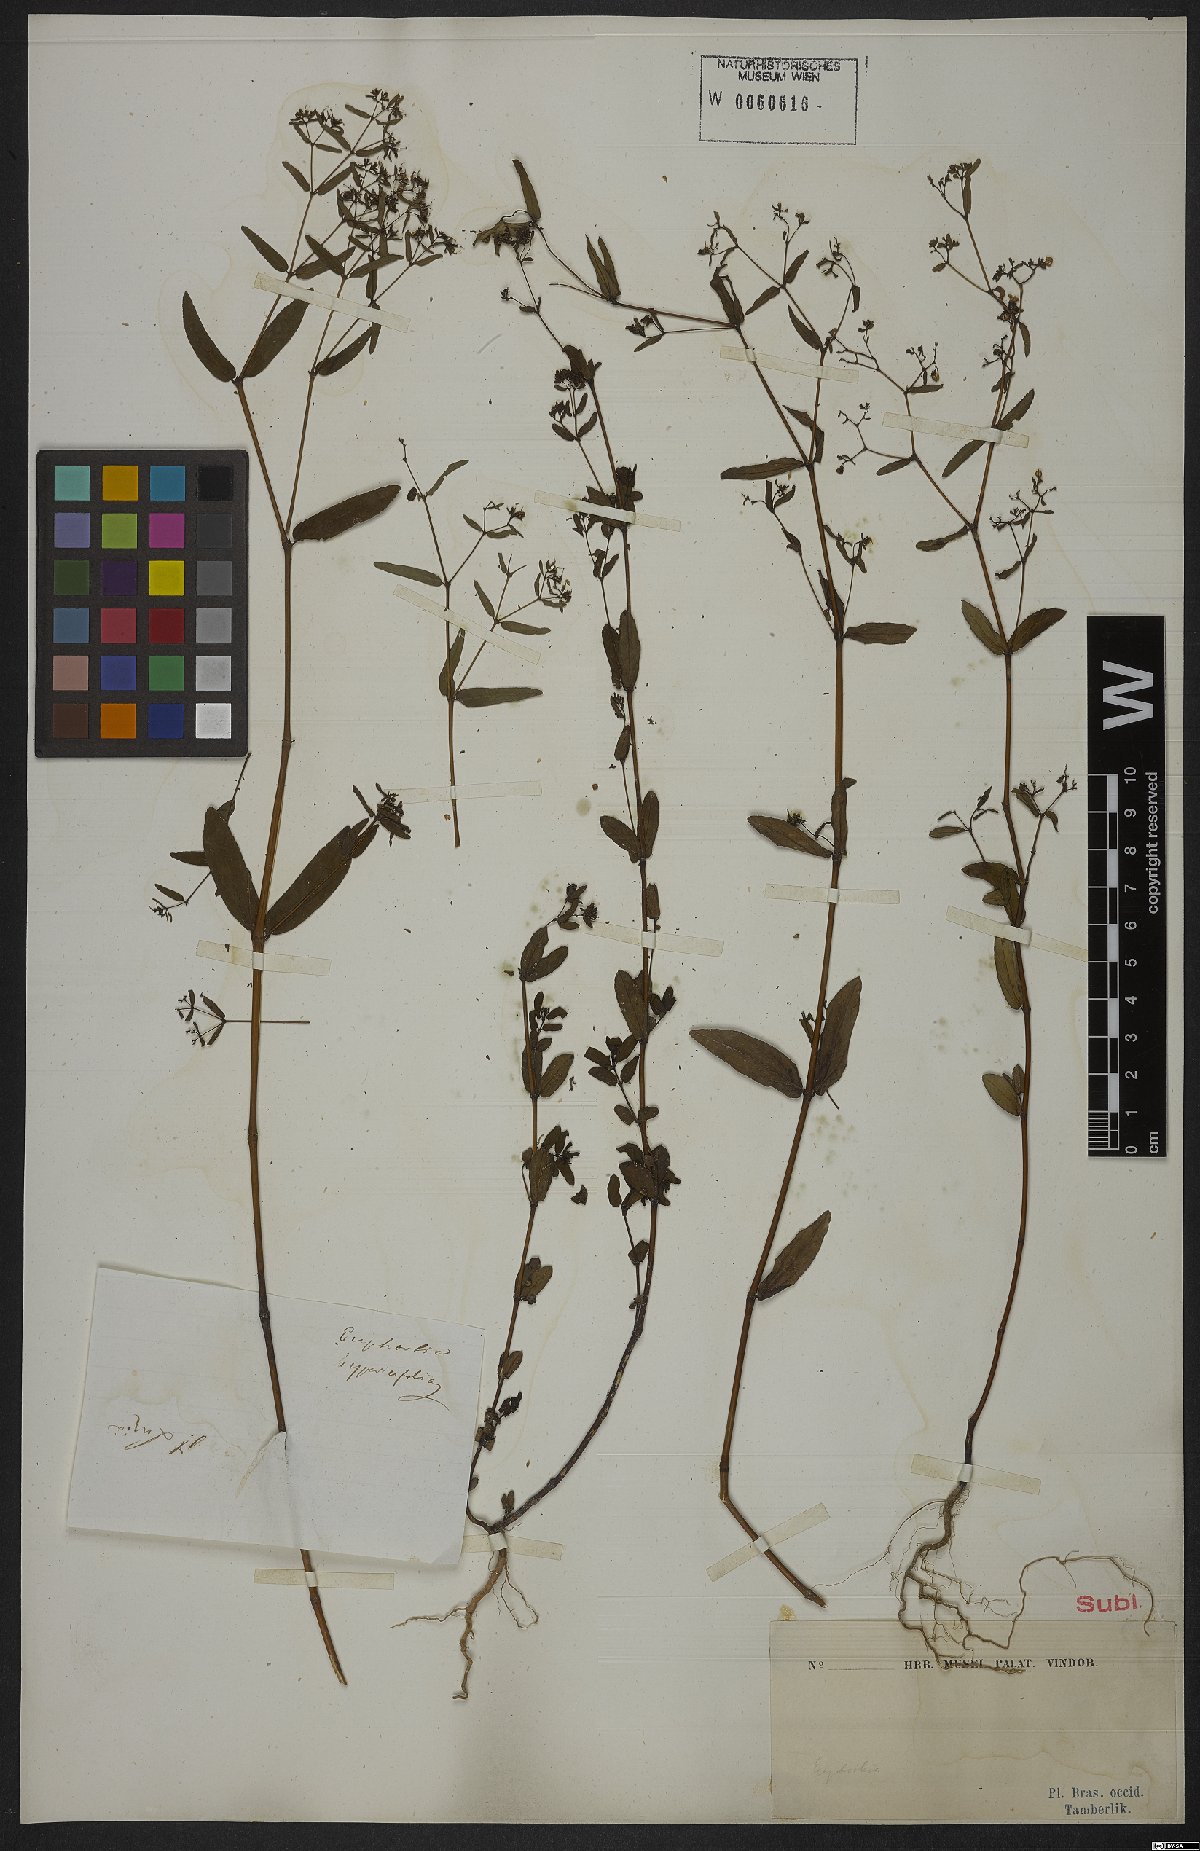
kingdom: Plantae
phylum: Tracheophyta
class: Magnoliopsida
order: Malpighiales
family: Euphorbiaceae
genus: Euphorbia
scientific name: Euphorbia hirtella
